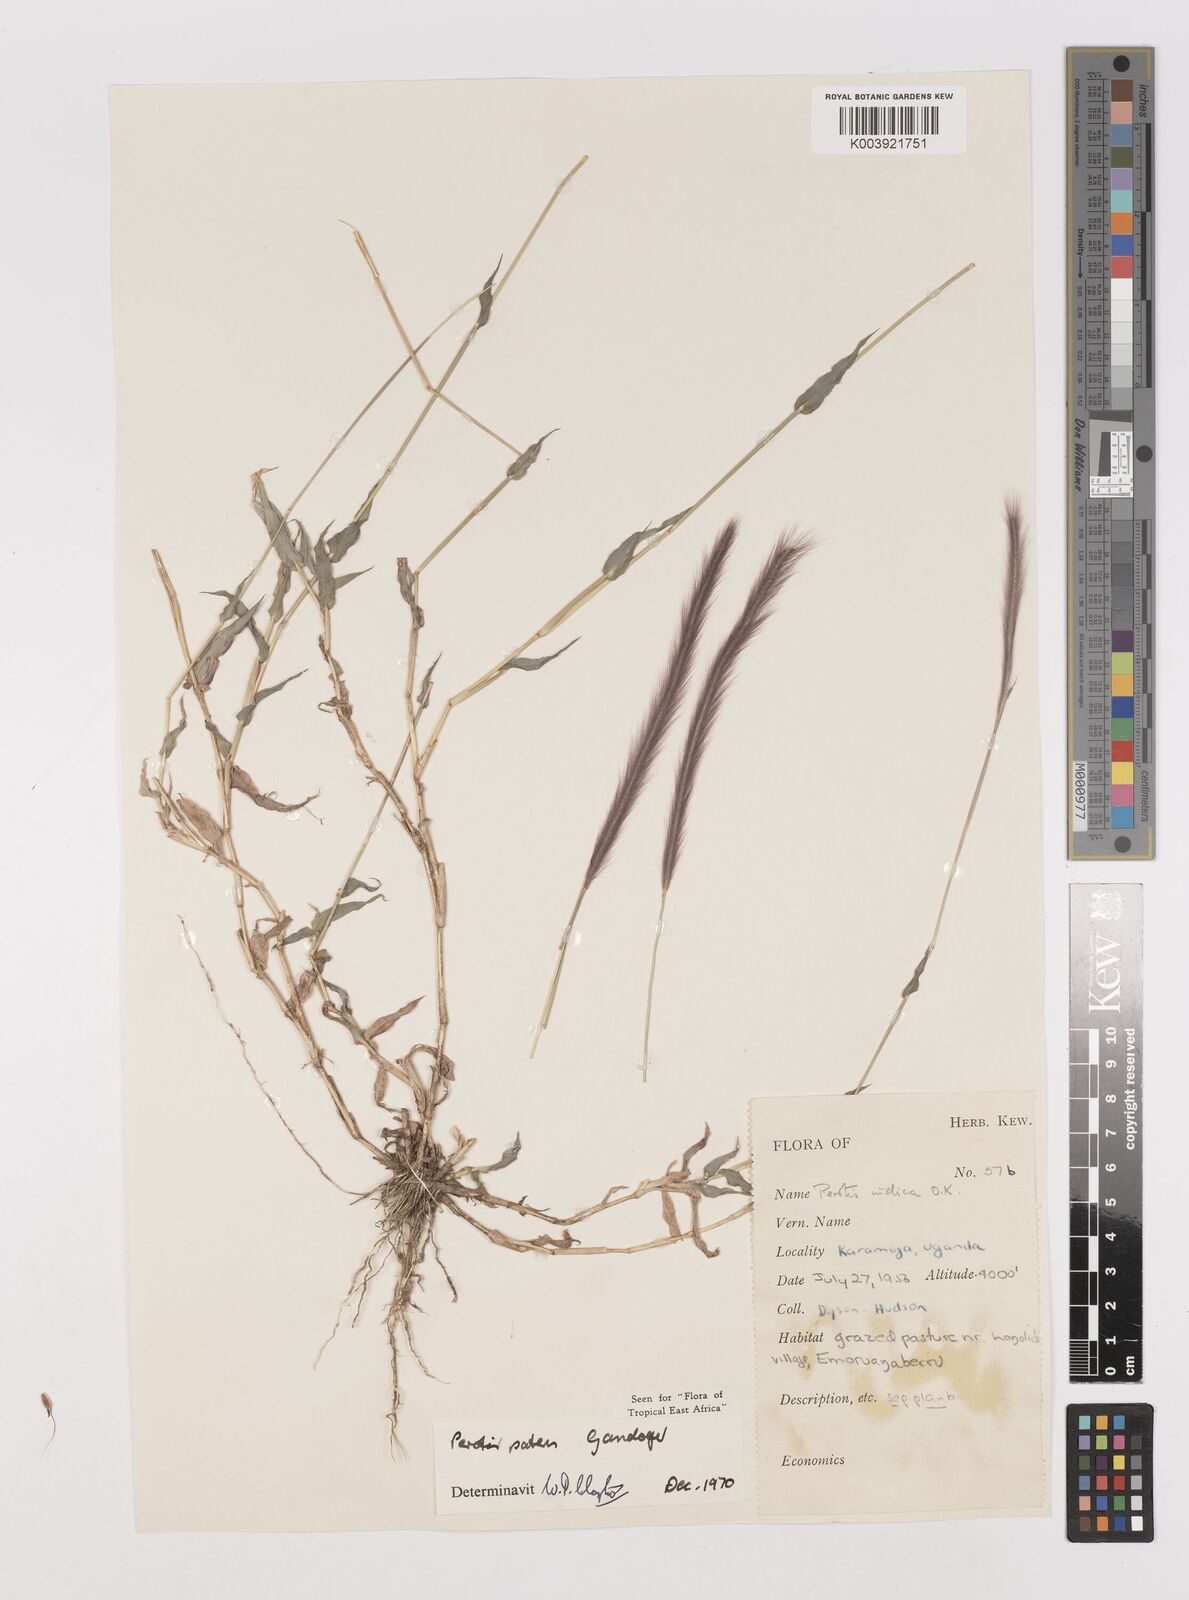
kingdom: Plantae
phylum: Tracheophyta
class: Liliopsida
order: Poales
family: Poaceae
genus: Perotis
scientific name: Perotis patens
